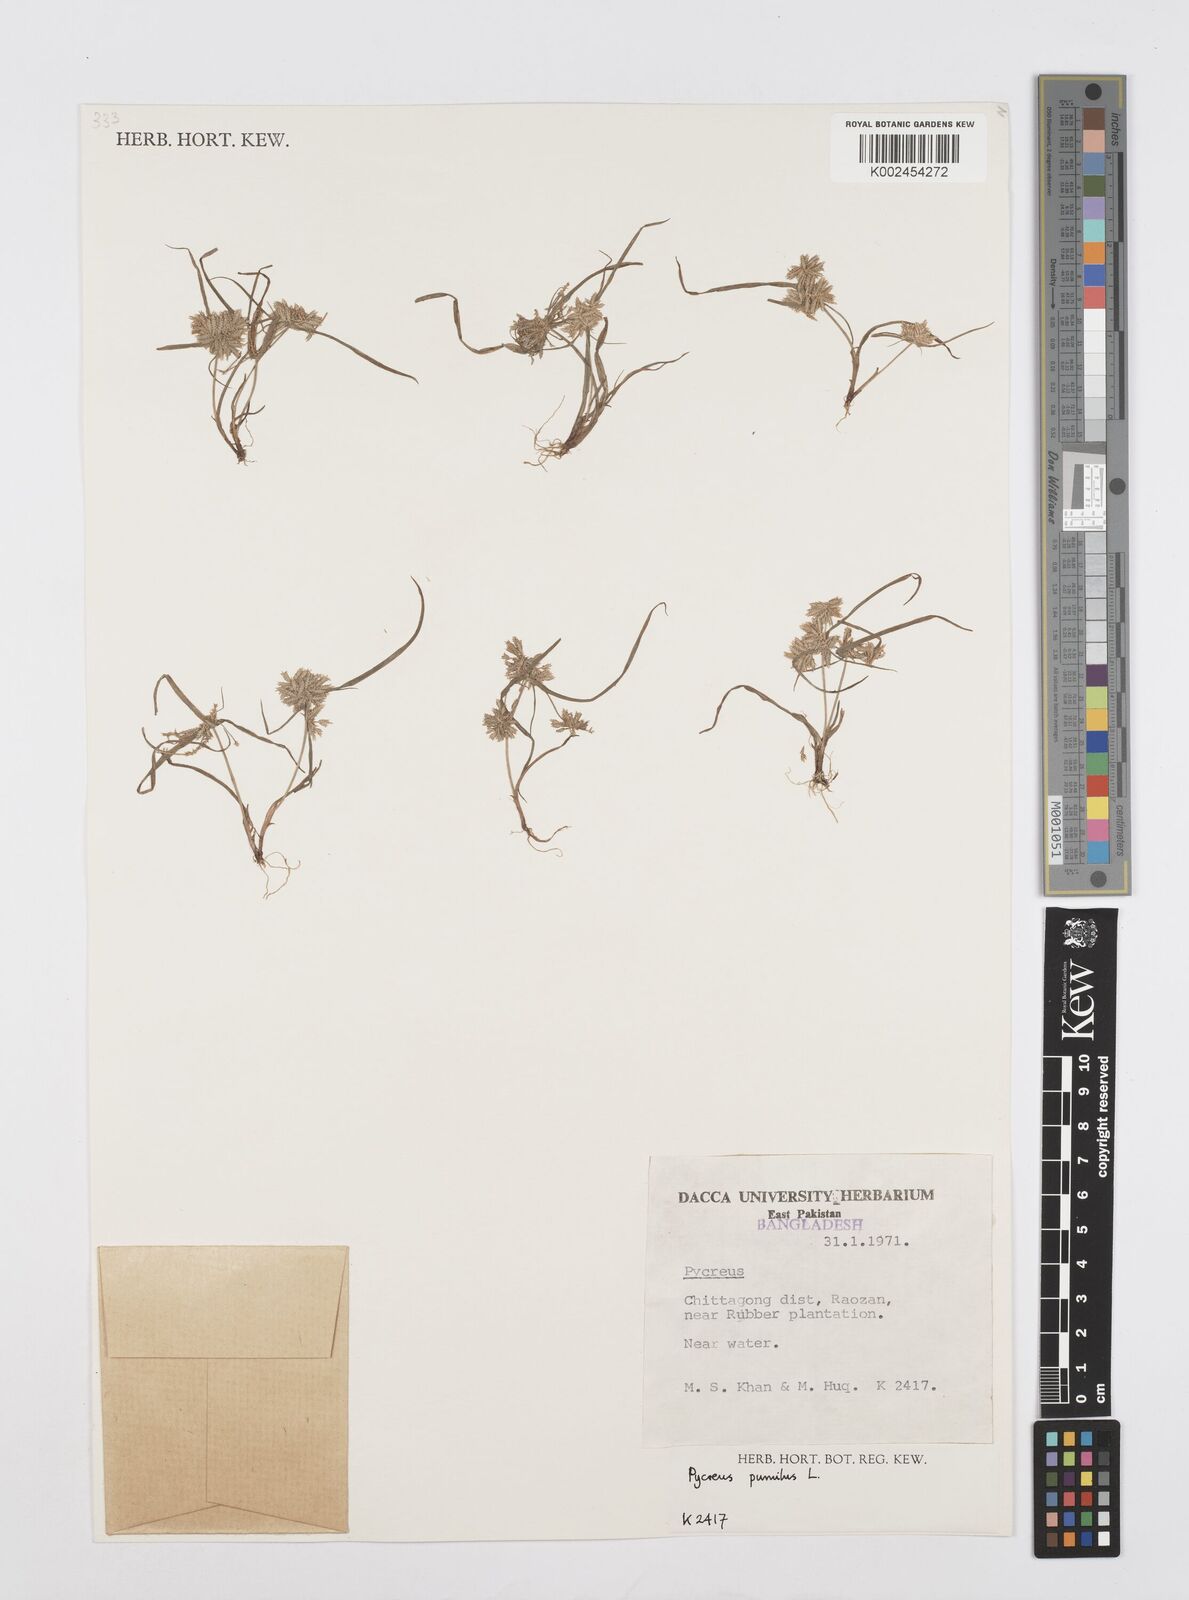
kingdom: Plantae
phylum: Tracheophyta
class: Liliopsida
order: Poales
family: Cyperaceae
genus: Cyperus
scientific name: Cyperus pumilus
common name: Low flatsedge
